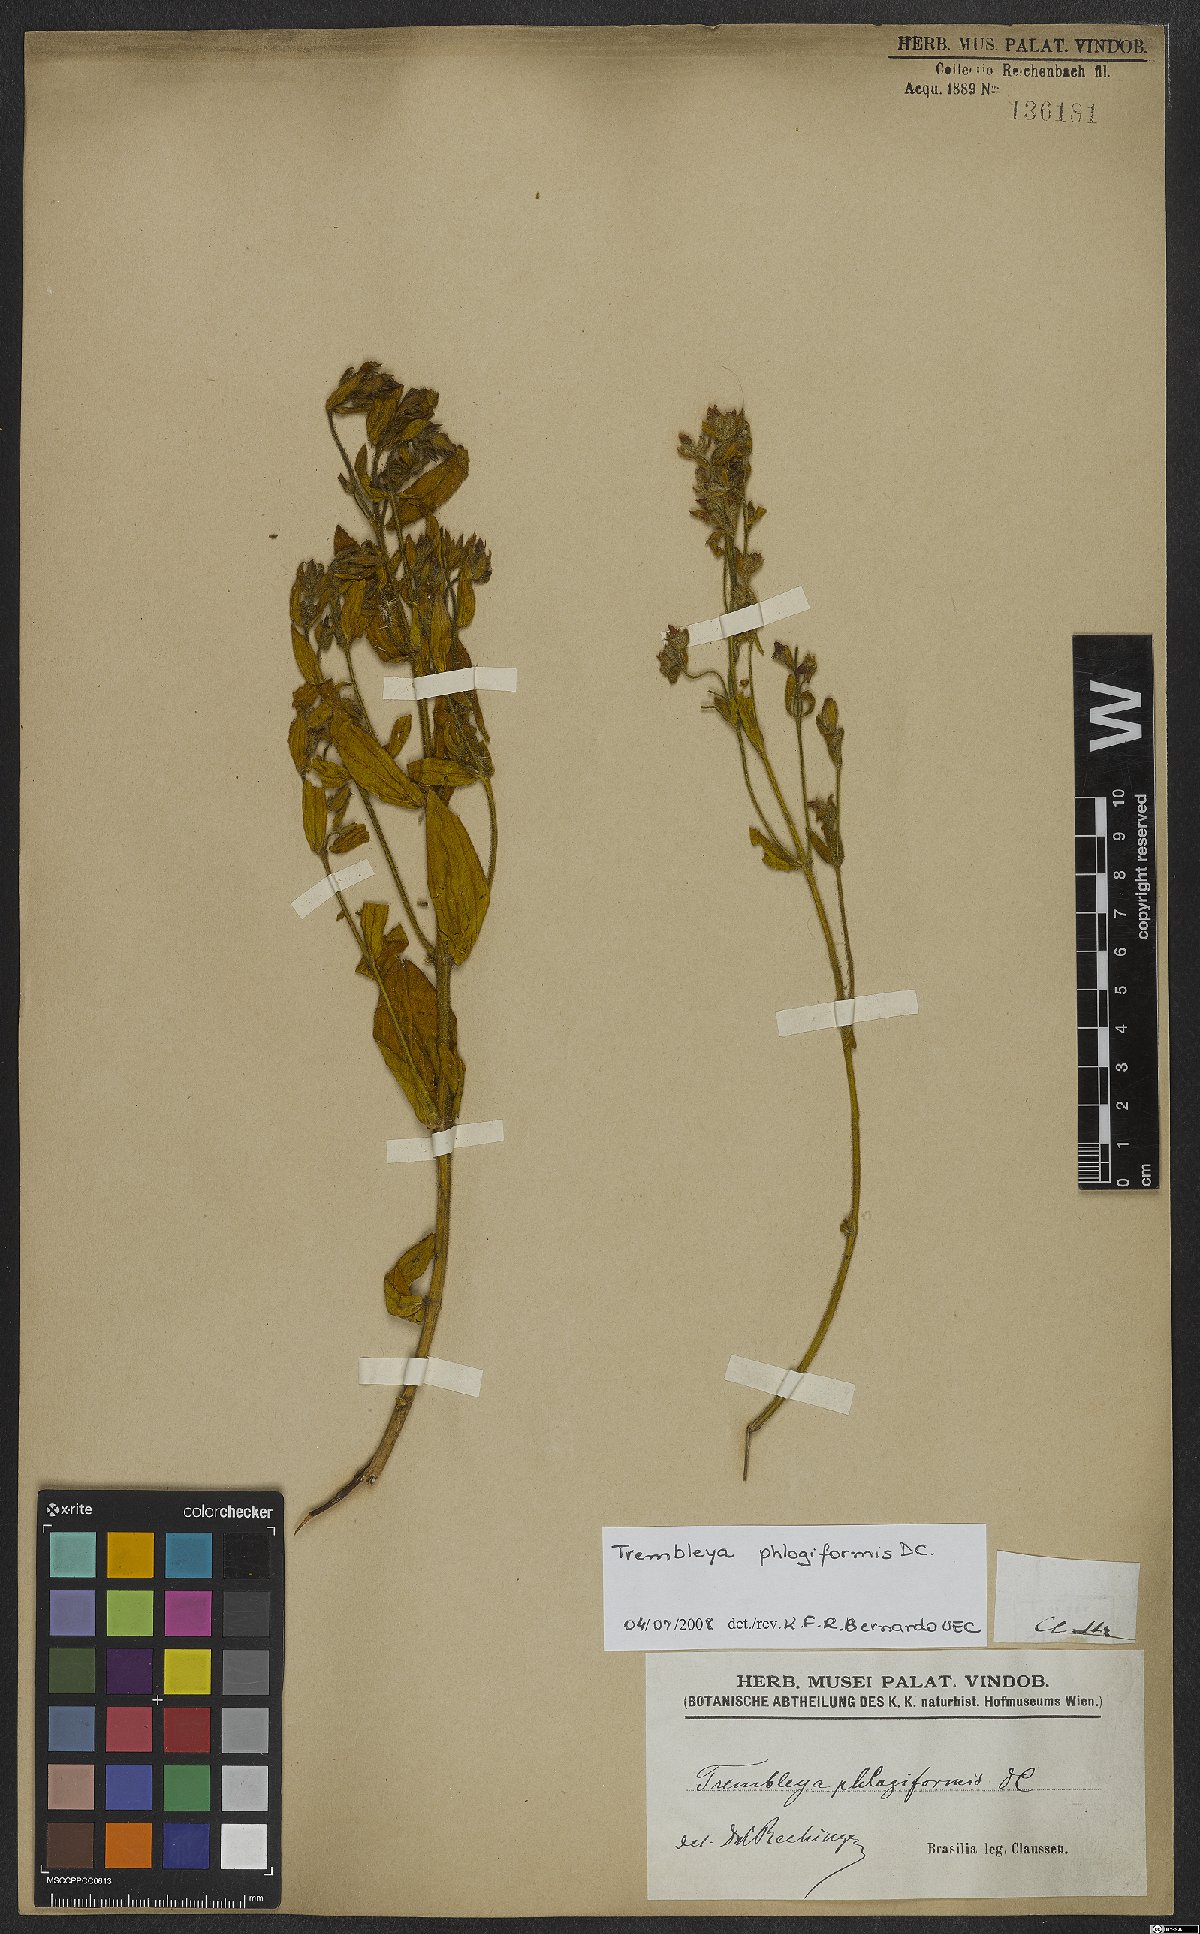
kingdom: Plantae
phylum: Tracheophyta
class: Magnoliopsida
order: Myrtales
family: Melastomataceae
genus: Microlicia
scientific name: Microlicia phlogiformis
